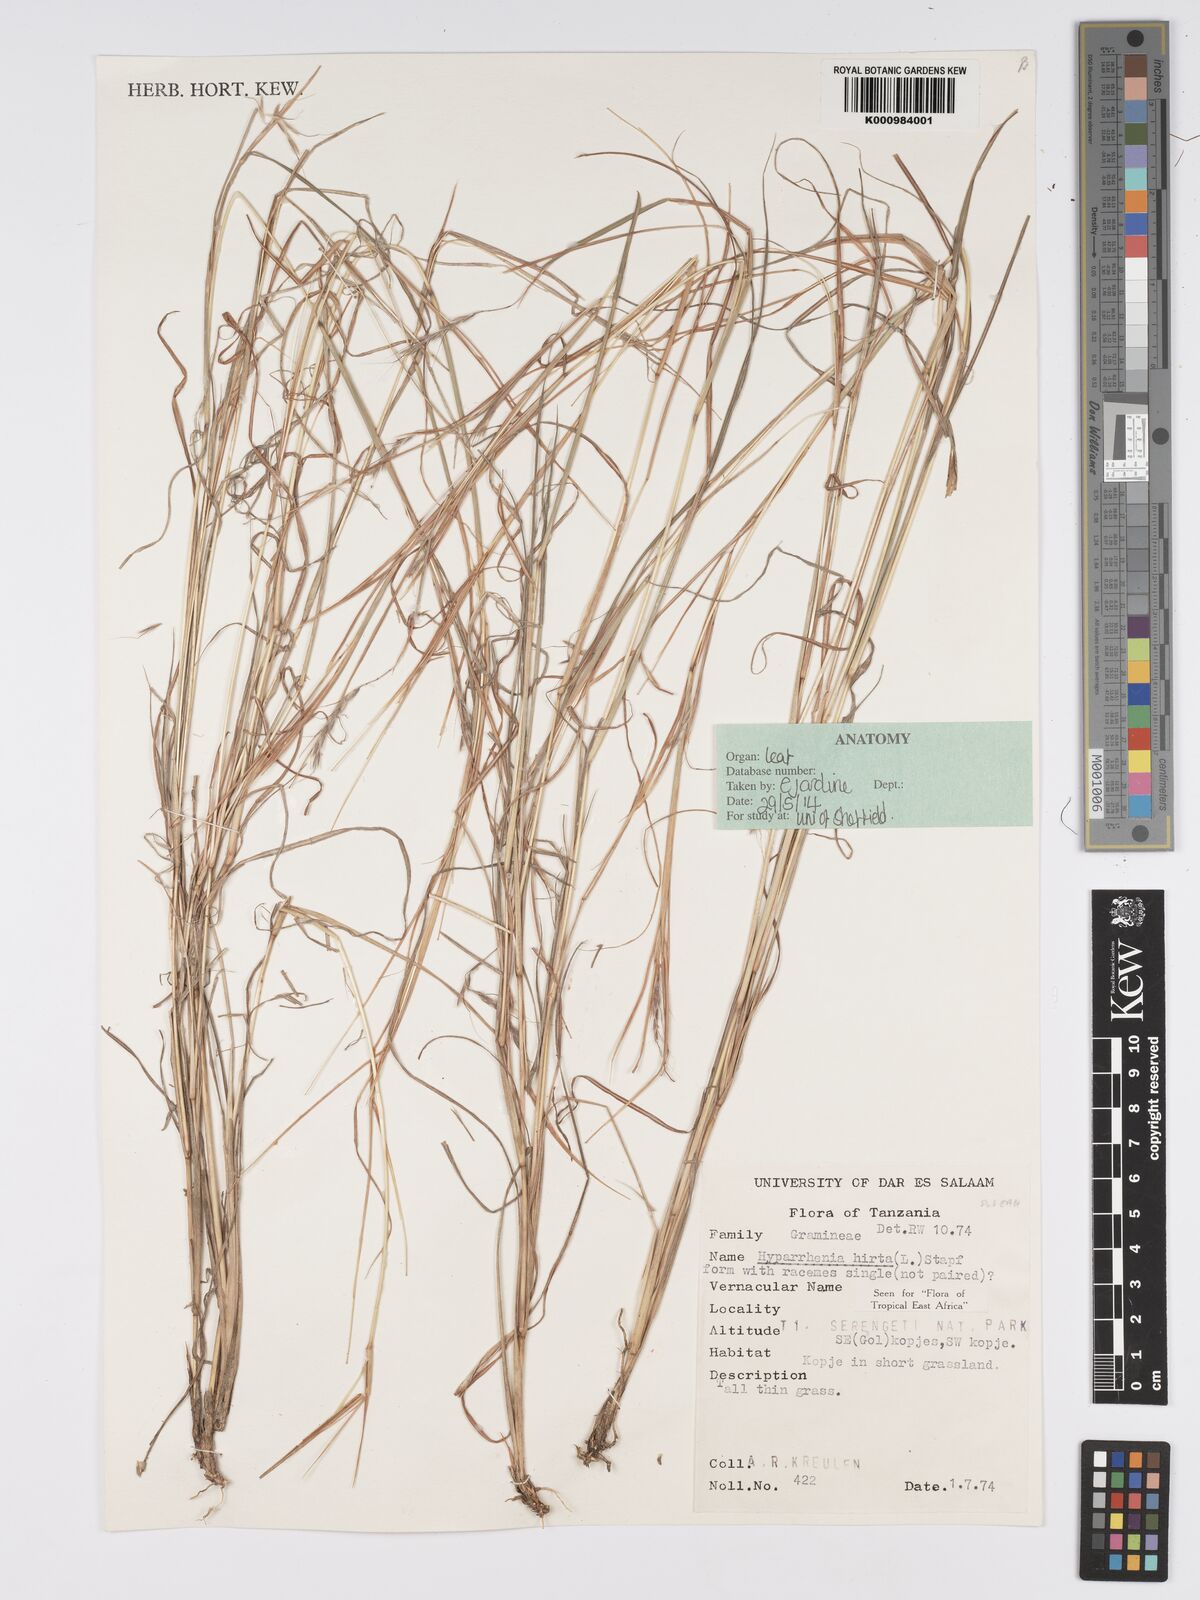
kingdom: Plantae
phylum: Tracheophyta
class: Liliopsida
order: Poales
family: Poaceae
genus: Hyparrhenia
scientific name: Hyparrhenia hirta
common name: Thatching grass
